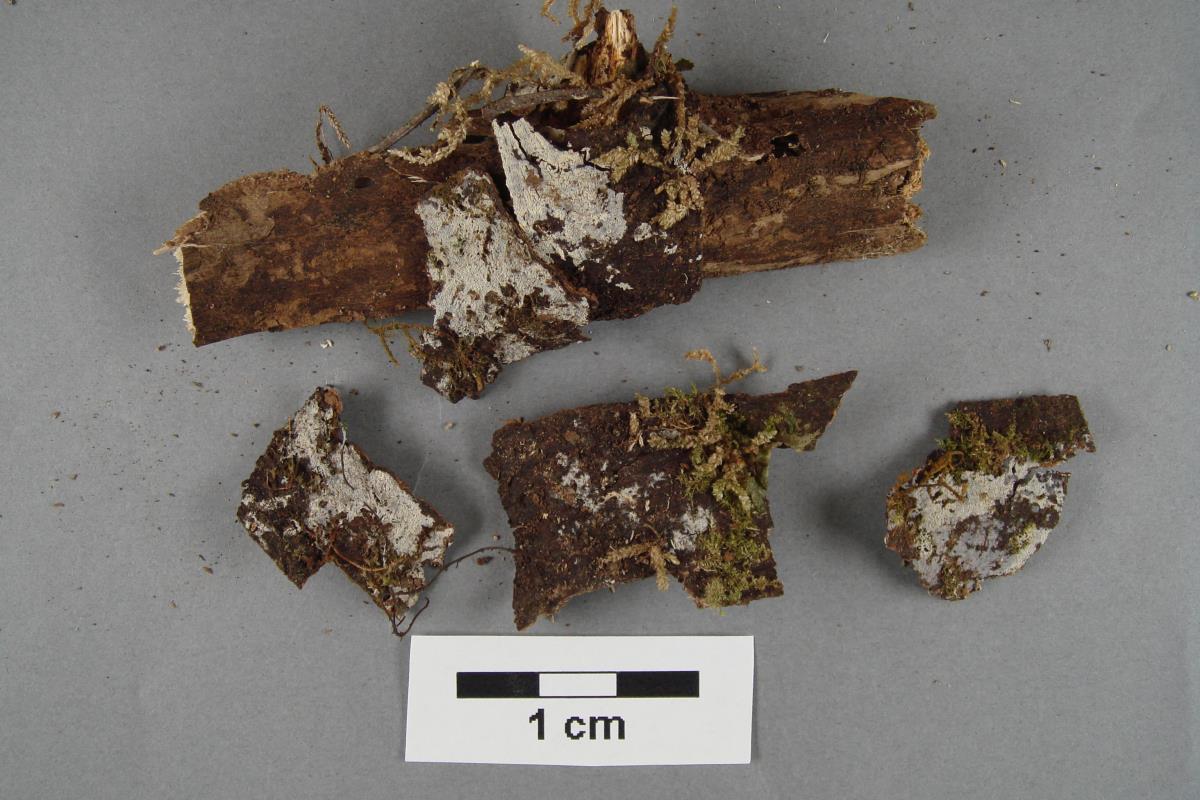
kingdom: Fungi
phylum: Basidiomycota
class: Agaricomycetes
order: Polyporales
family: Meruliaceae
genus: Scopuloides
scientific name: Scopuloides hydnoides
